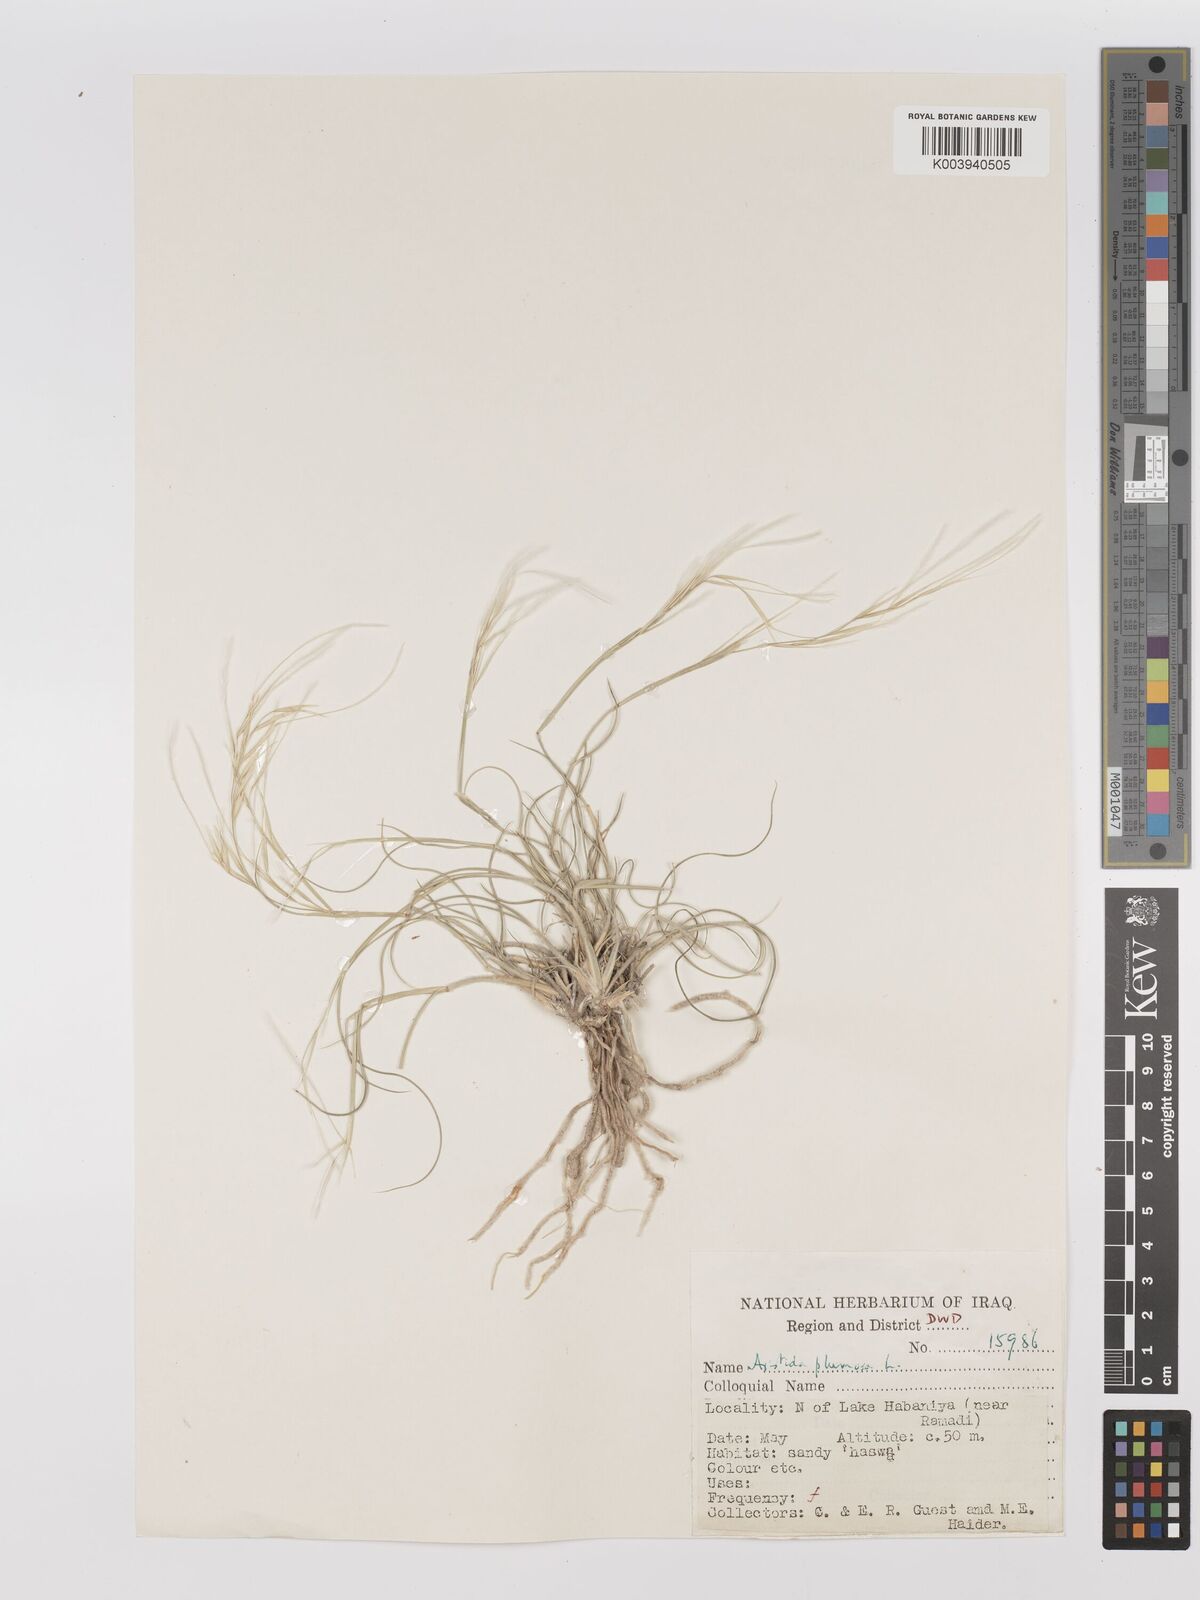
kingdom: Plantae
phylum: Tracheophyta
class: Liliopsida
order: Poales
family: Poaceae
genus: Stipagrostis
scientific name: Stipagrostis plumosa
